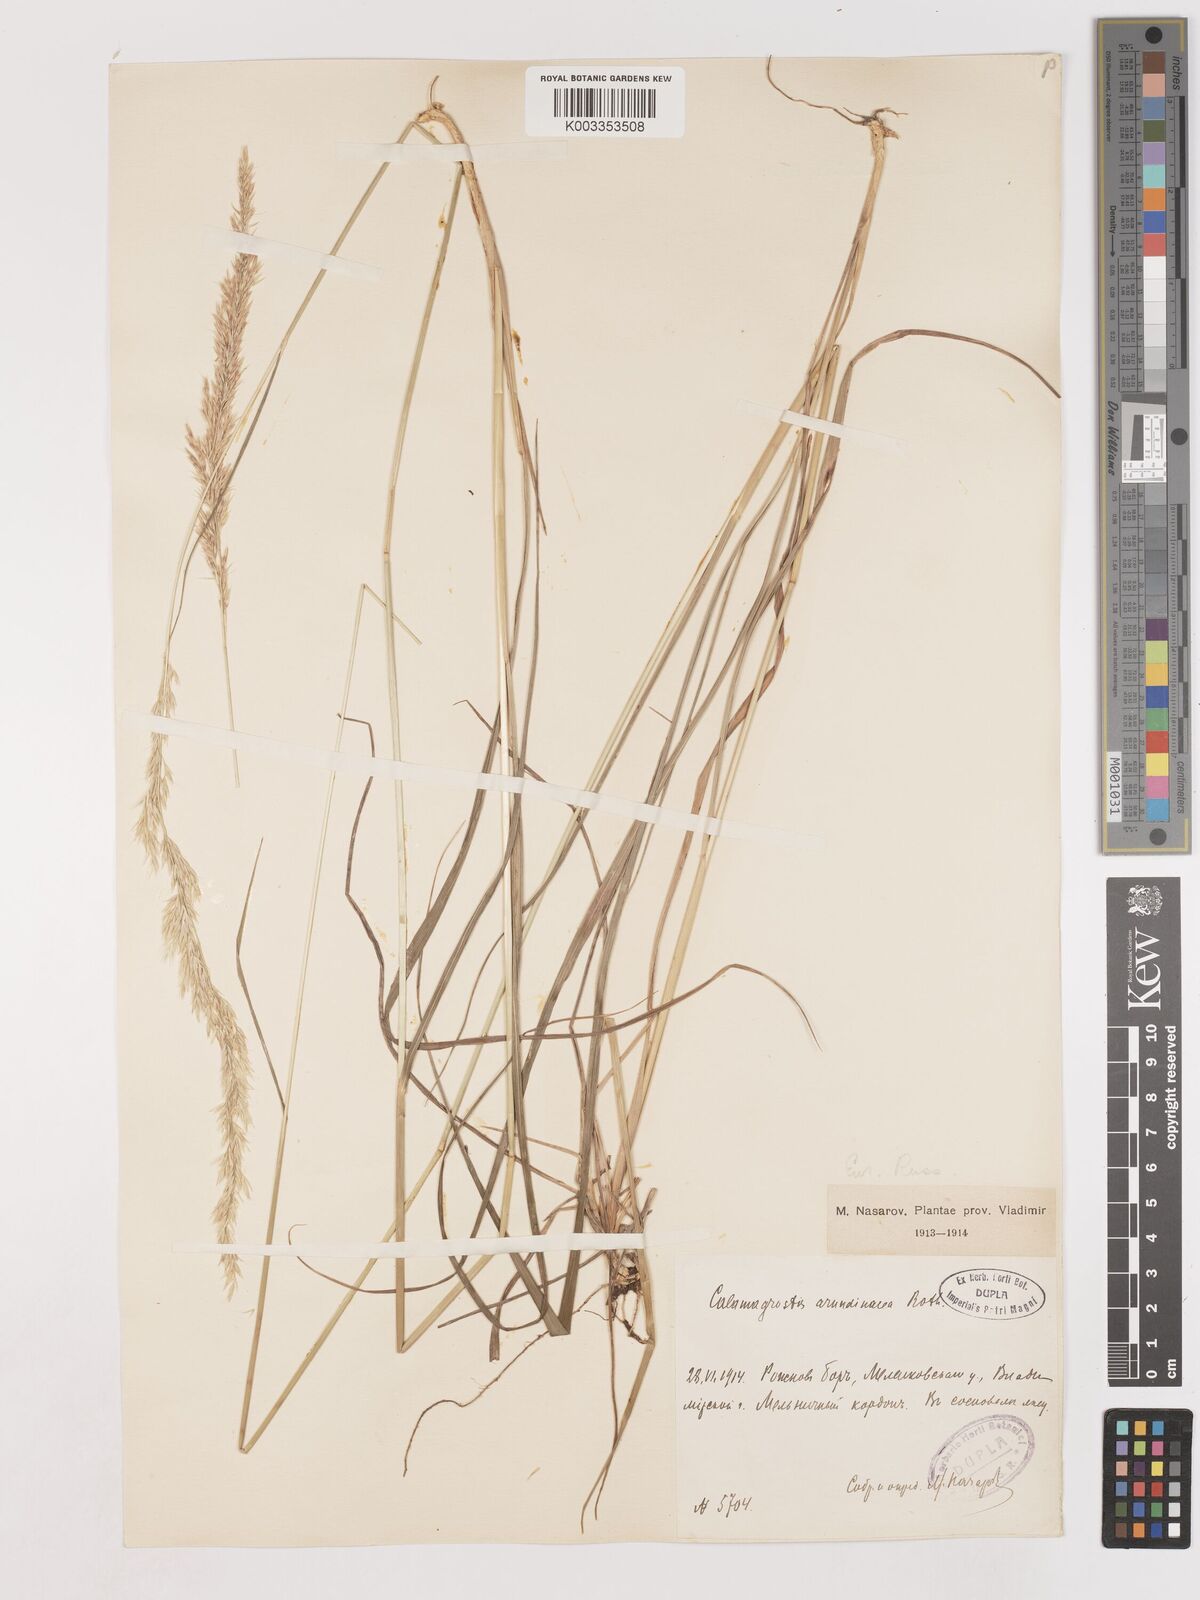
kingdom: Plantae
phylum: Tracheophyta
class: Liliopsida
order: Poales
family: Poaceae
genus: Calamagrostis
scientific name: Calamagrostis
